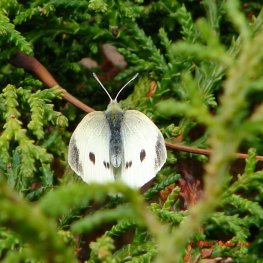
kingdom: Animalia
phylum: Arthropoda
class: Insecta
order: Lepidoptera
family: Pieridae
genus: Pieris
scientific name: Pieris rapae
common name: Cabbage White
